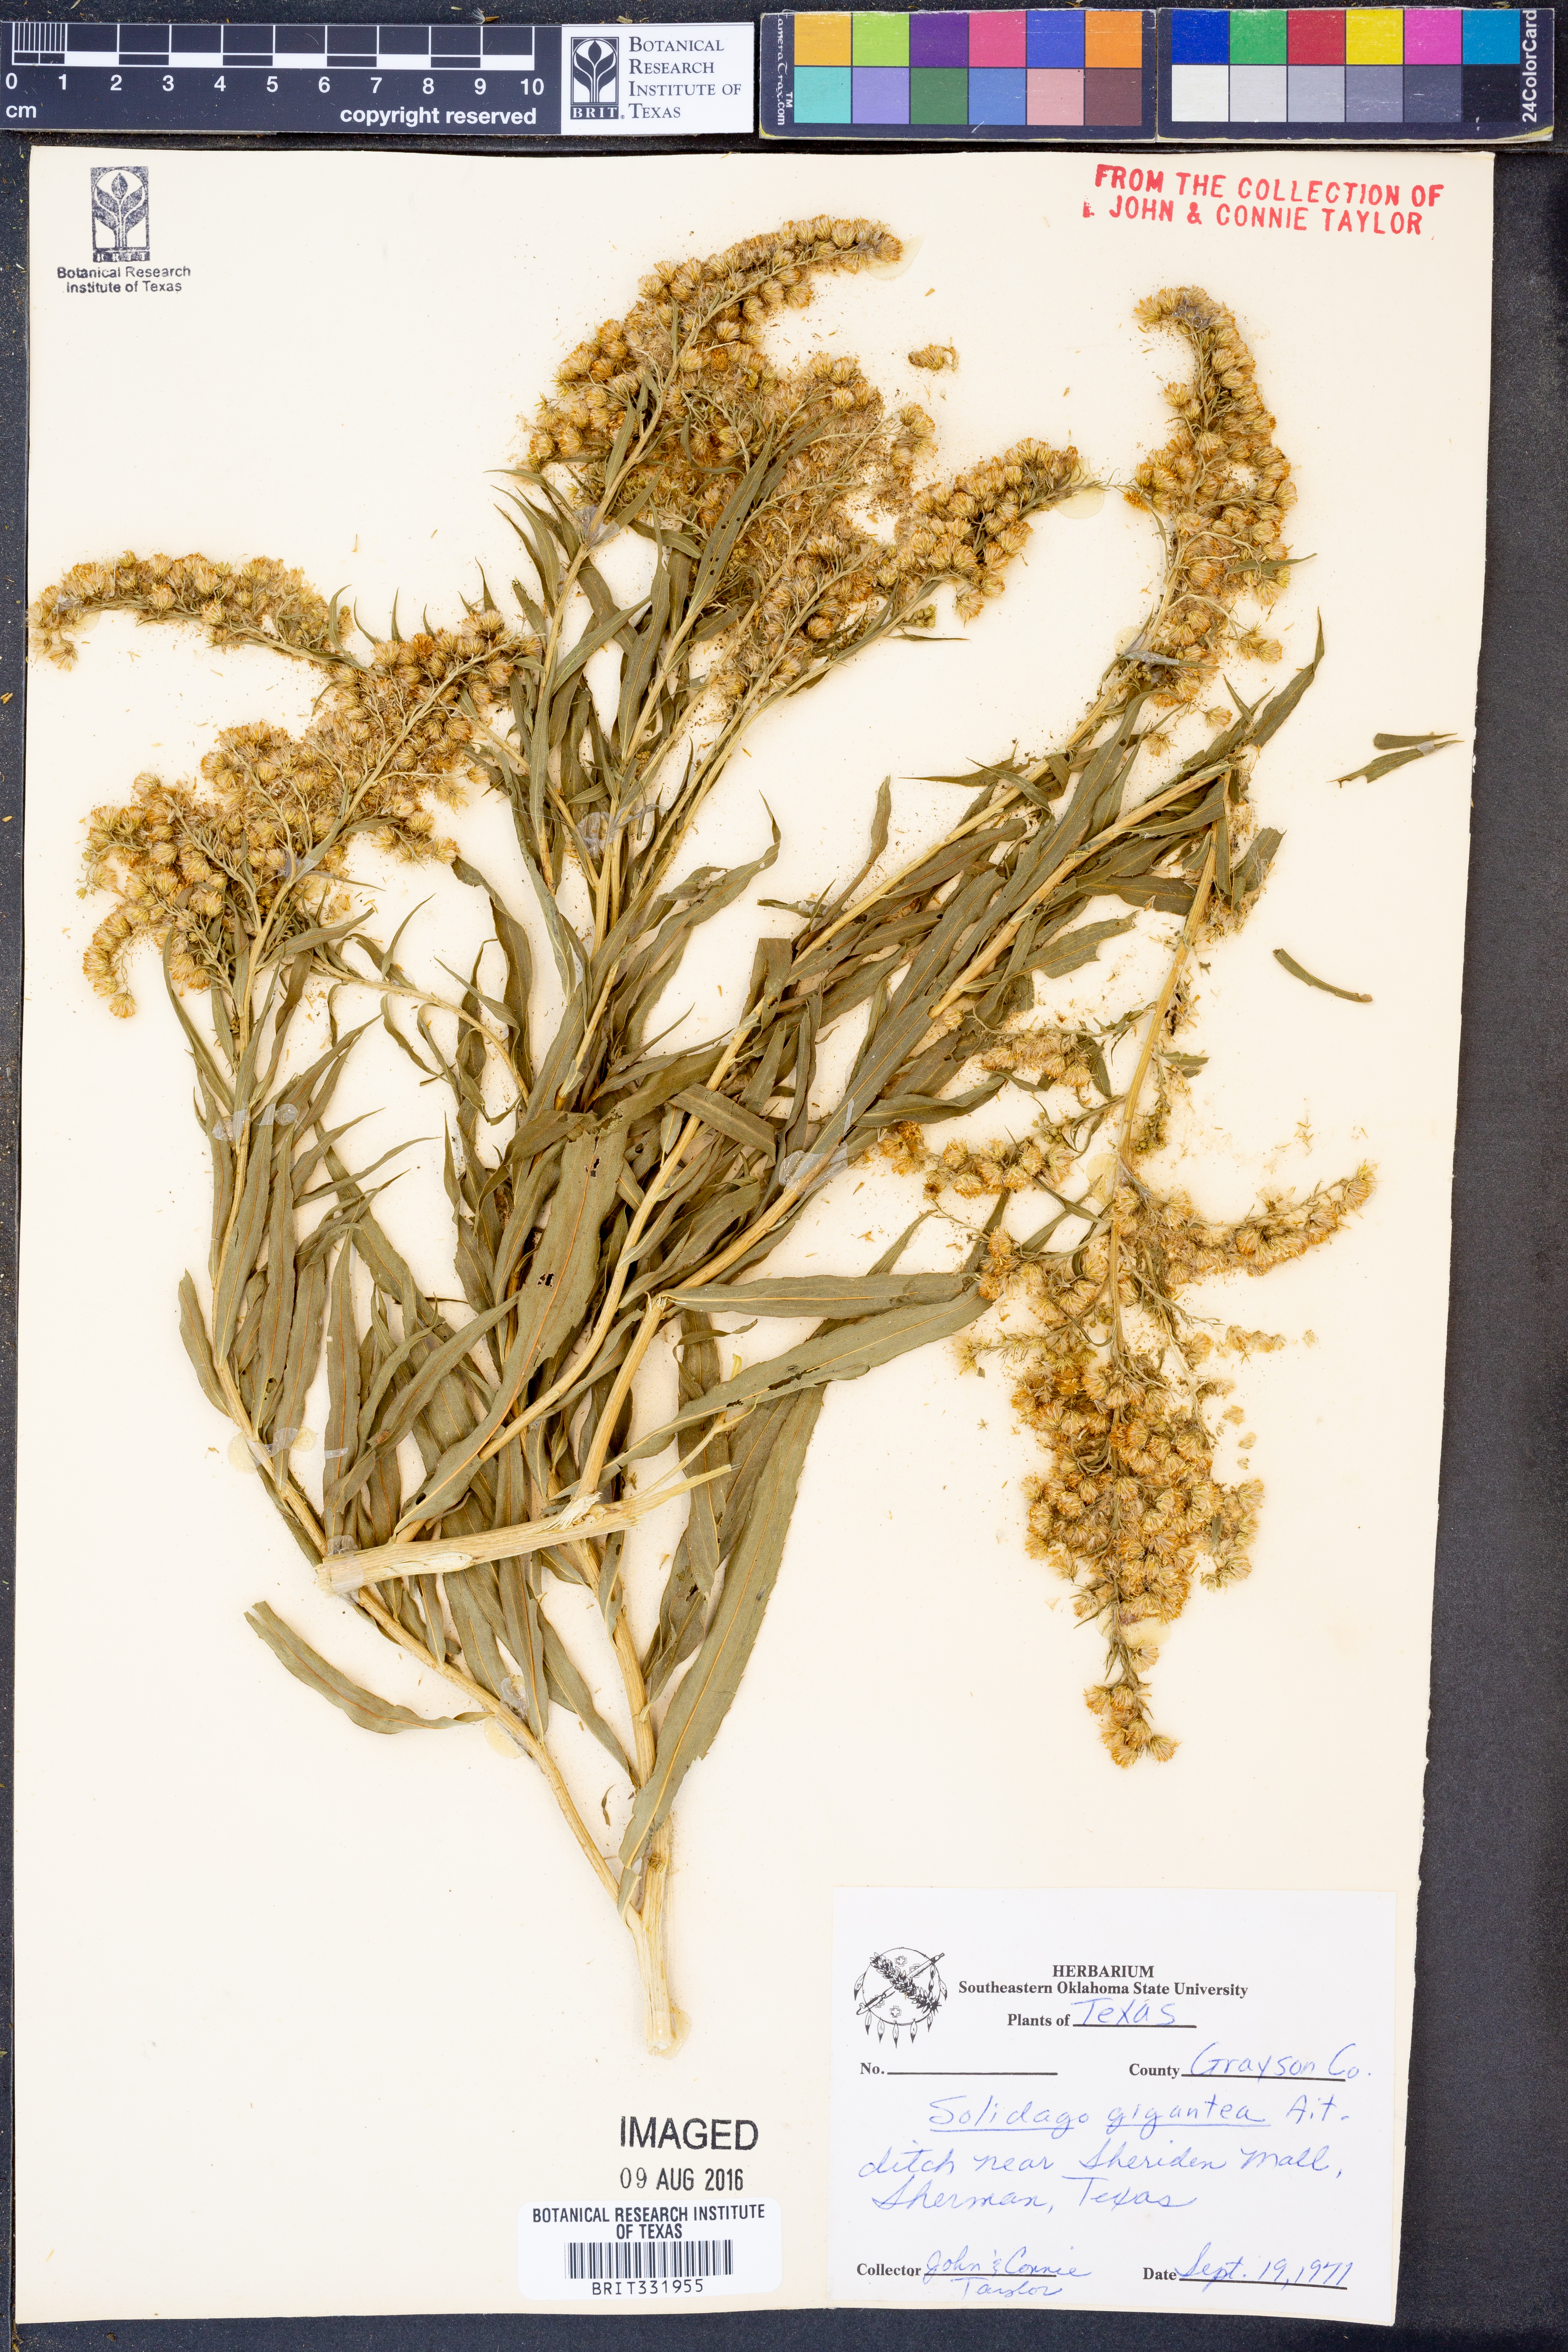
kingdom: Plantae
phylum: Tracheophyta
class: Magnoliopsida
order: Asterales
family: Asteraceae
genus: Solidago
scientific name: Solidago gigantea
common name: Giant goldenrod
